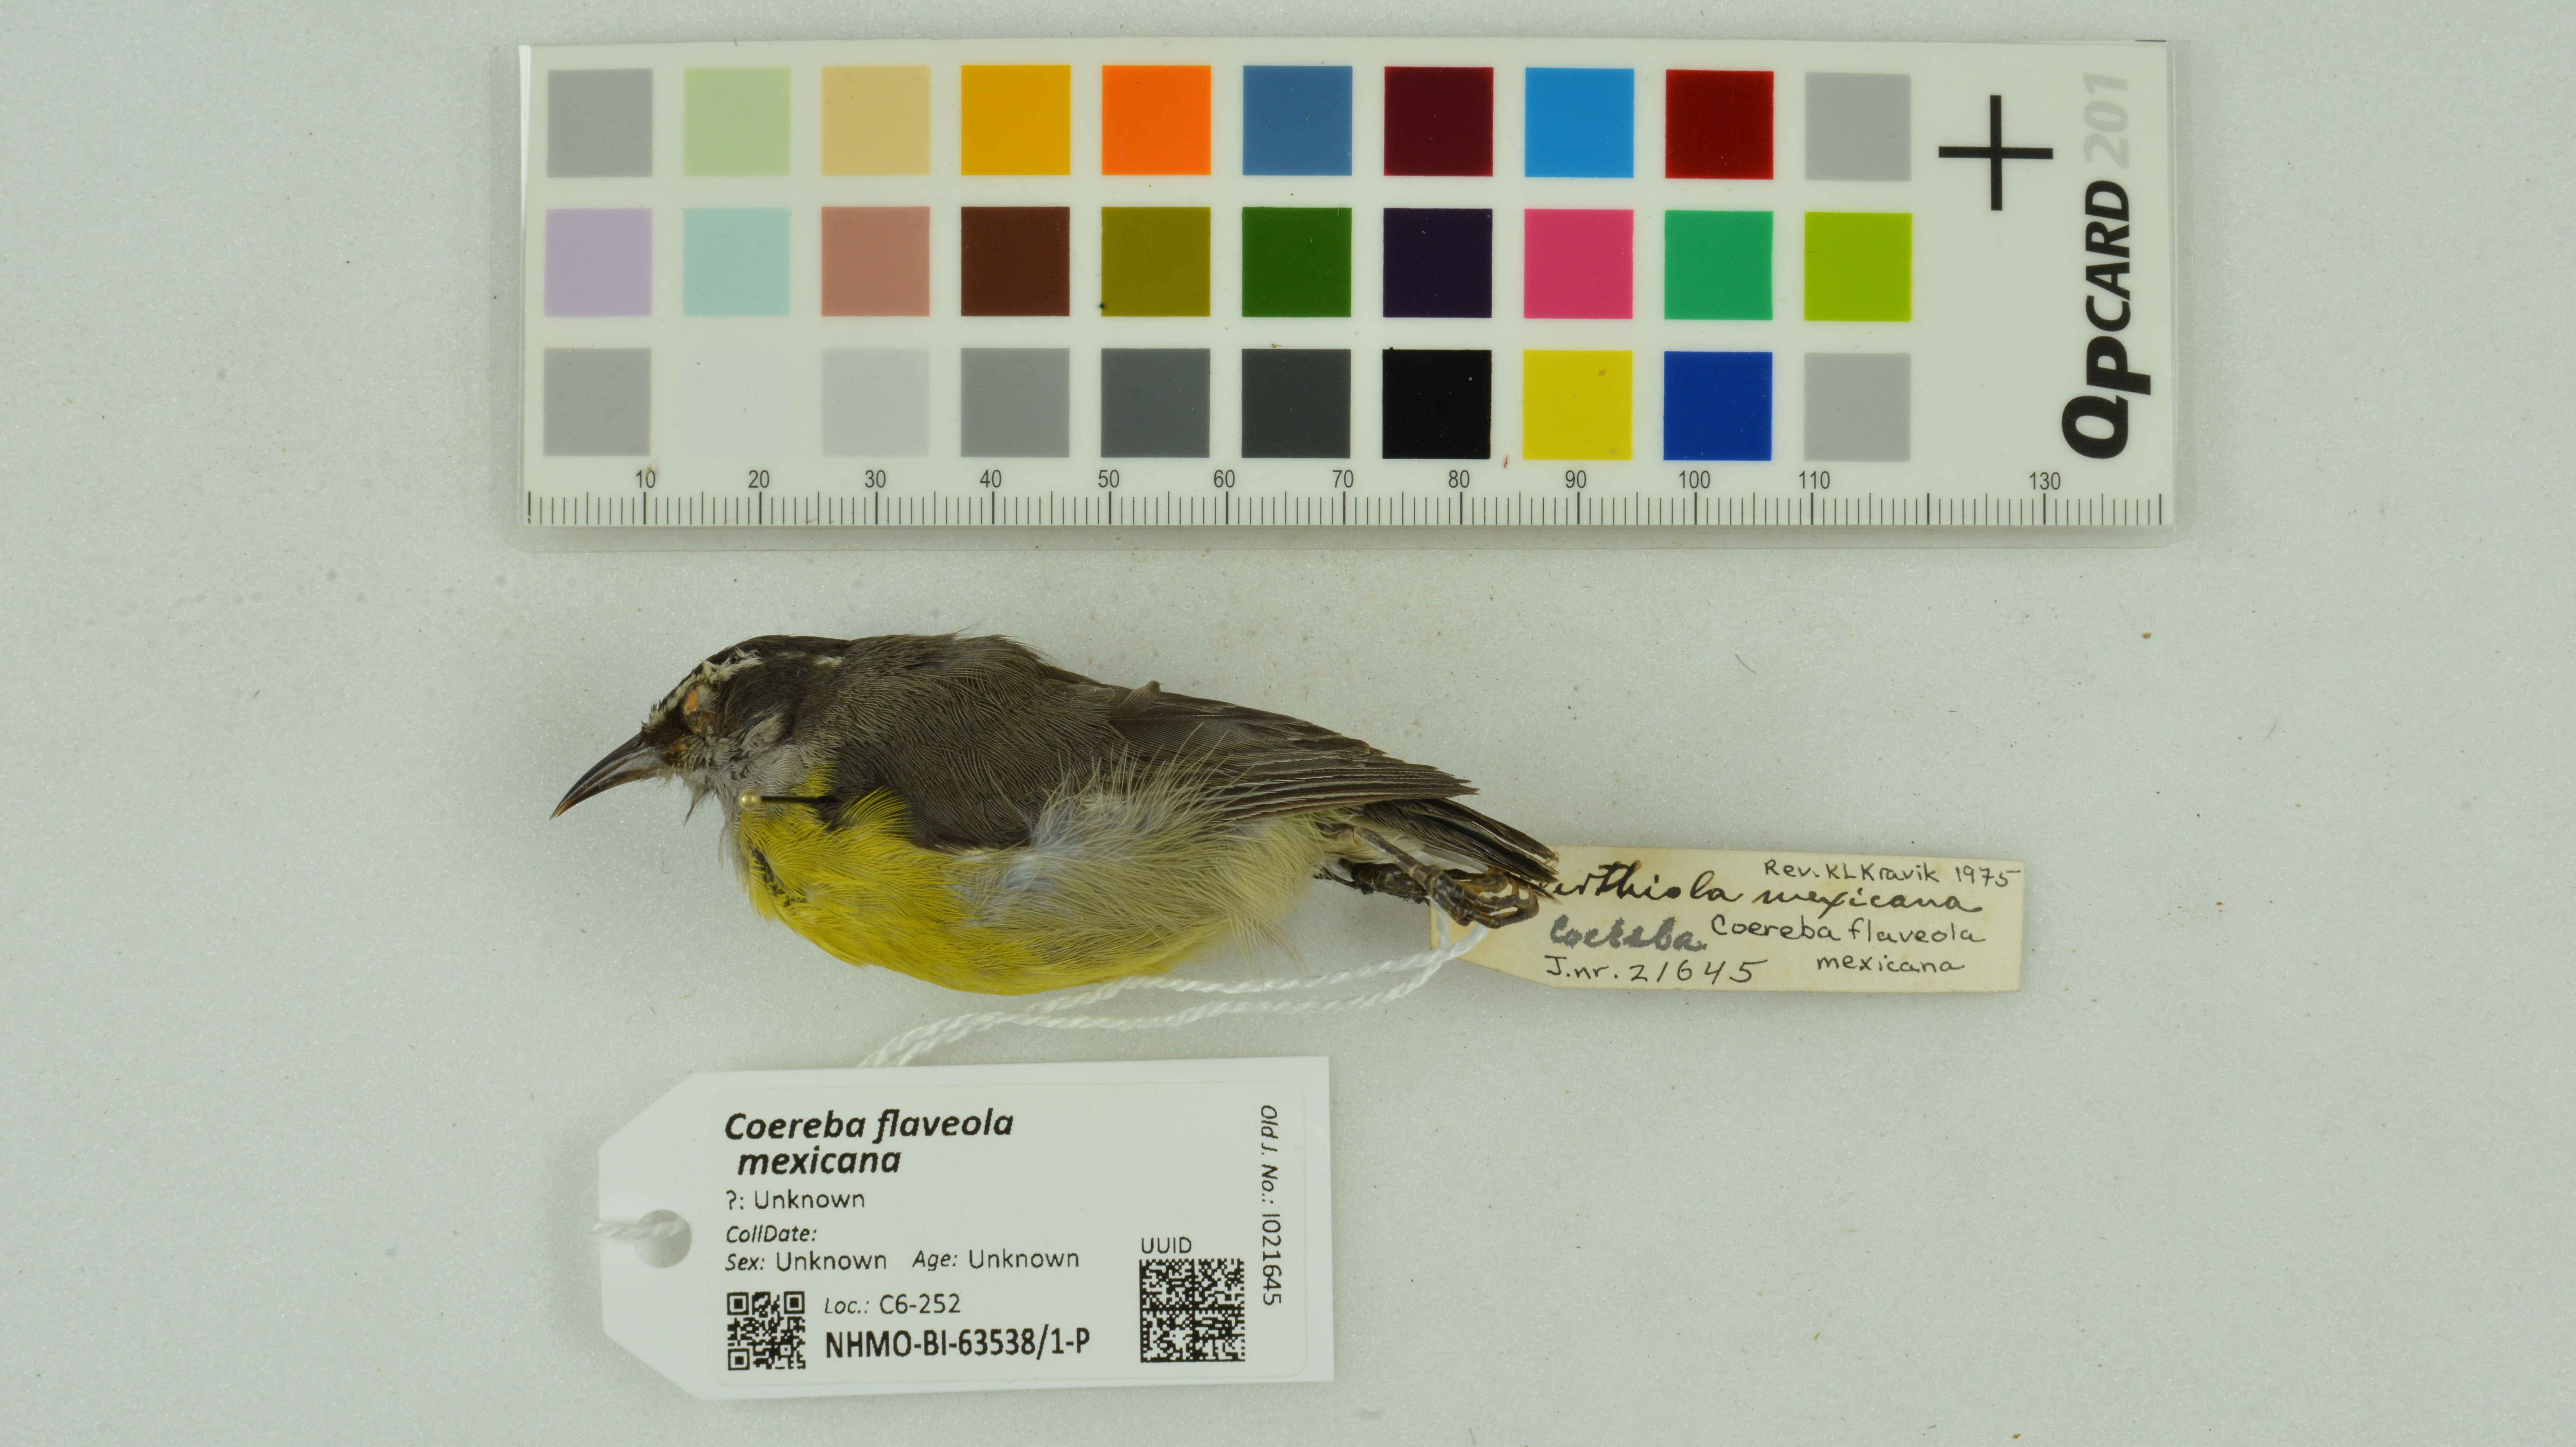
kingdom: Animalia
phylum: Chordata
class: Aves
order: Passeriformes
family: Thraupidae
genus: Coereba
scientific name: Coereba flaveola
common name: Bananaquit
